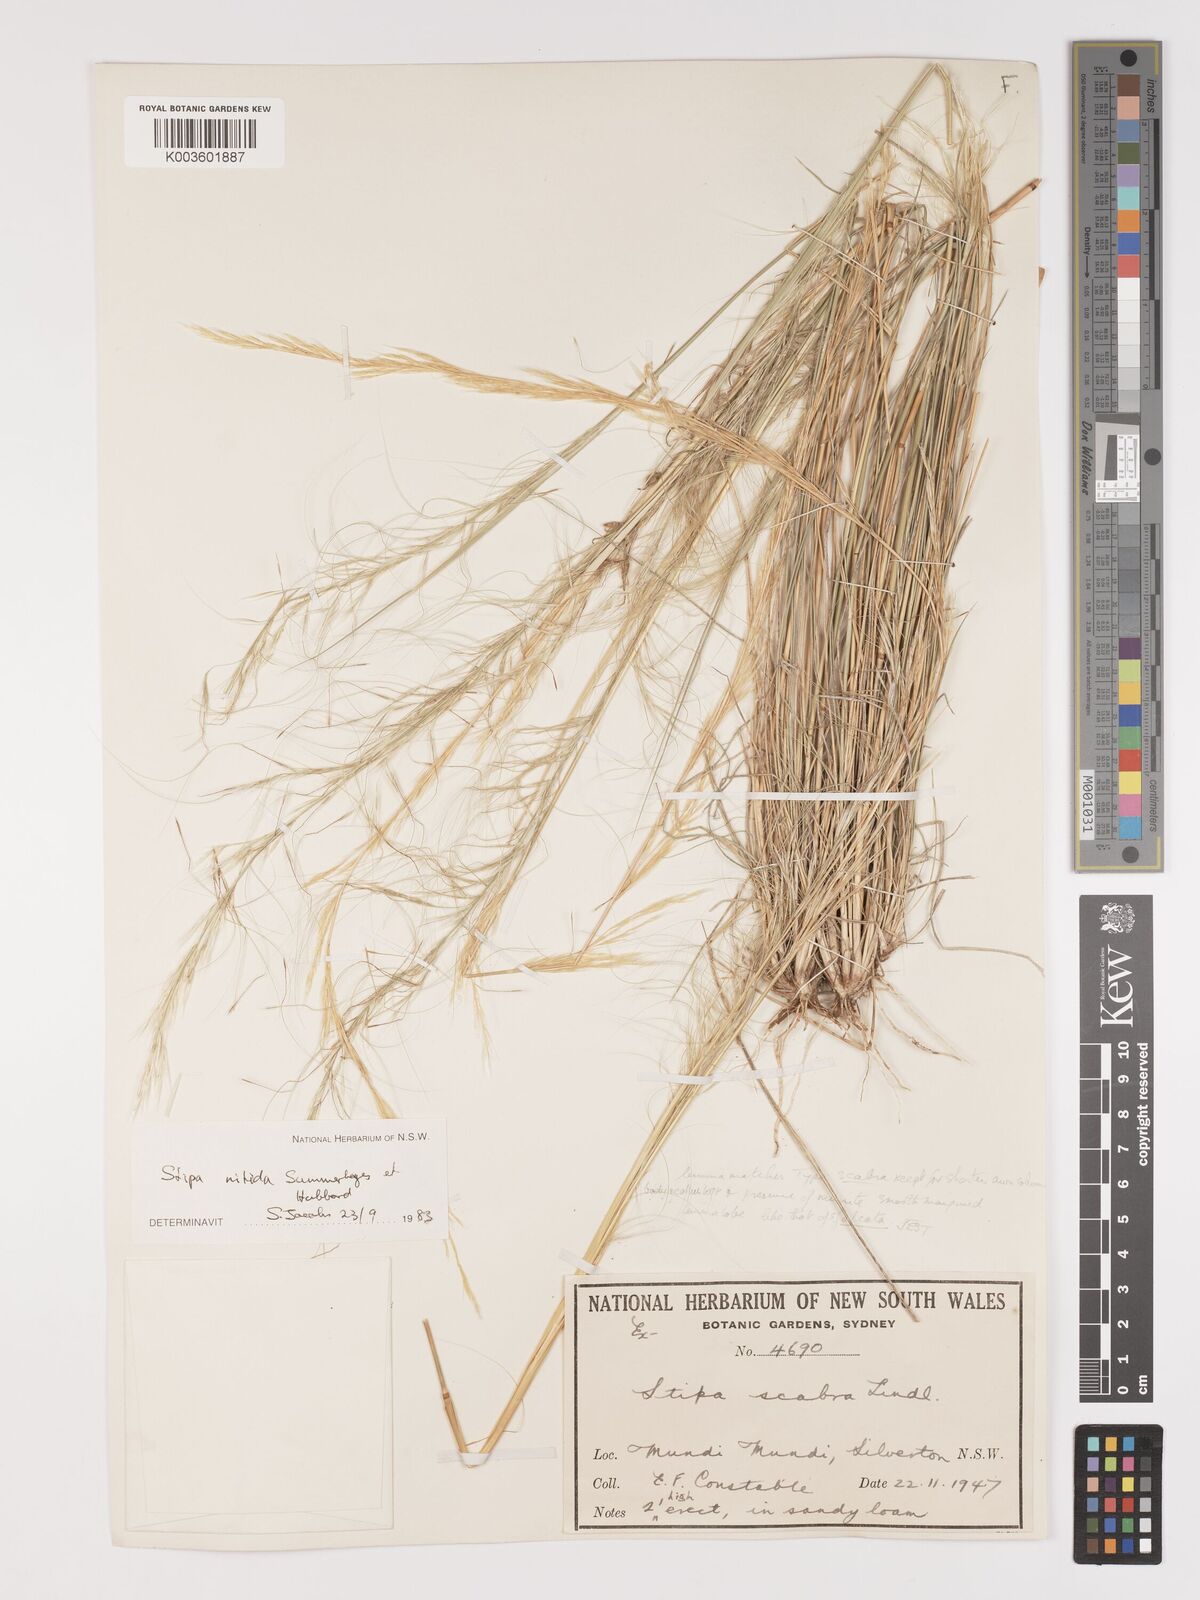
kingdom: Plantae
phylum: Tracheophyta
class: Liliopsida
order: Poales
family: Poaceae
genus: Austrostipa
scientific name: Austrostipa nitida
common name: Balcarra grass
